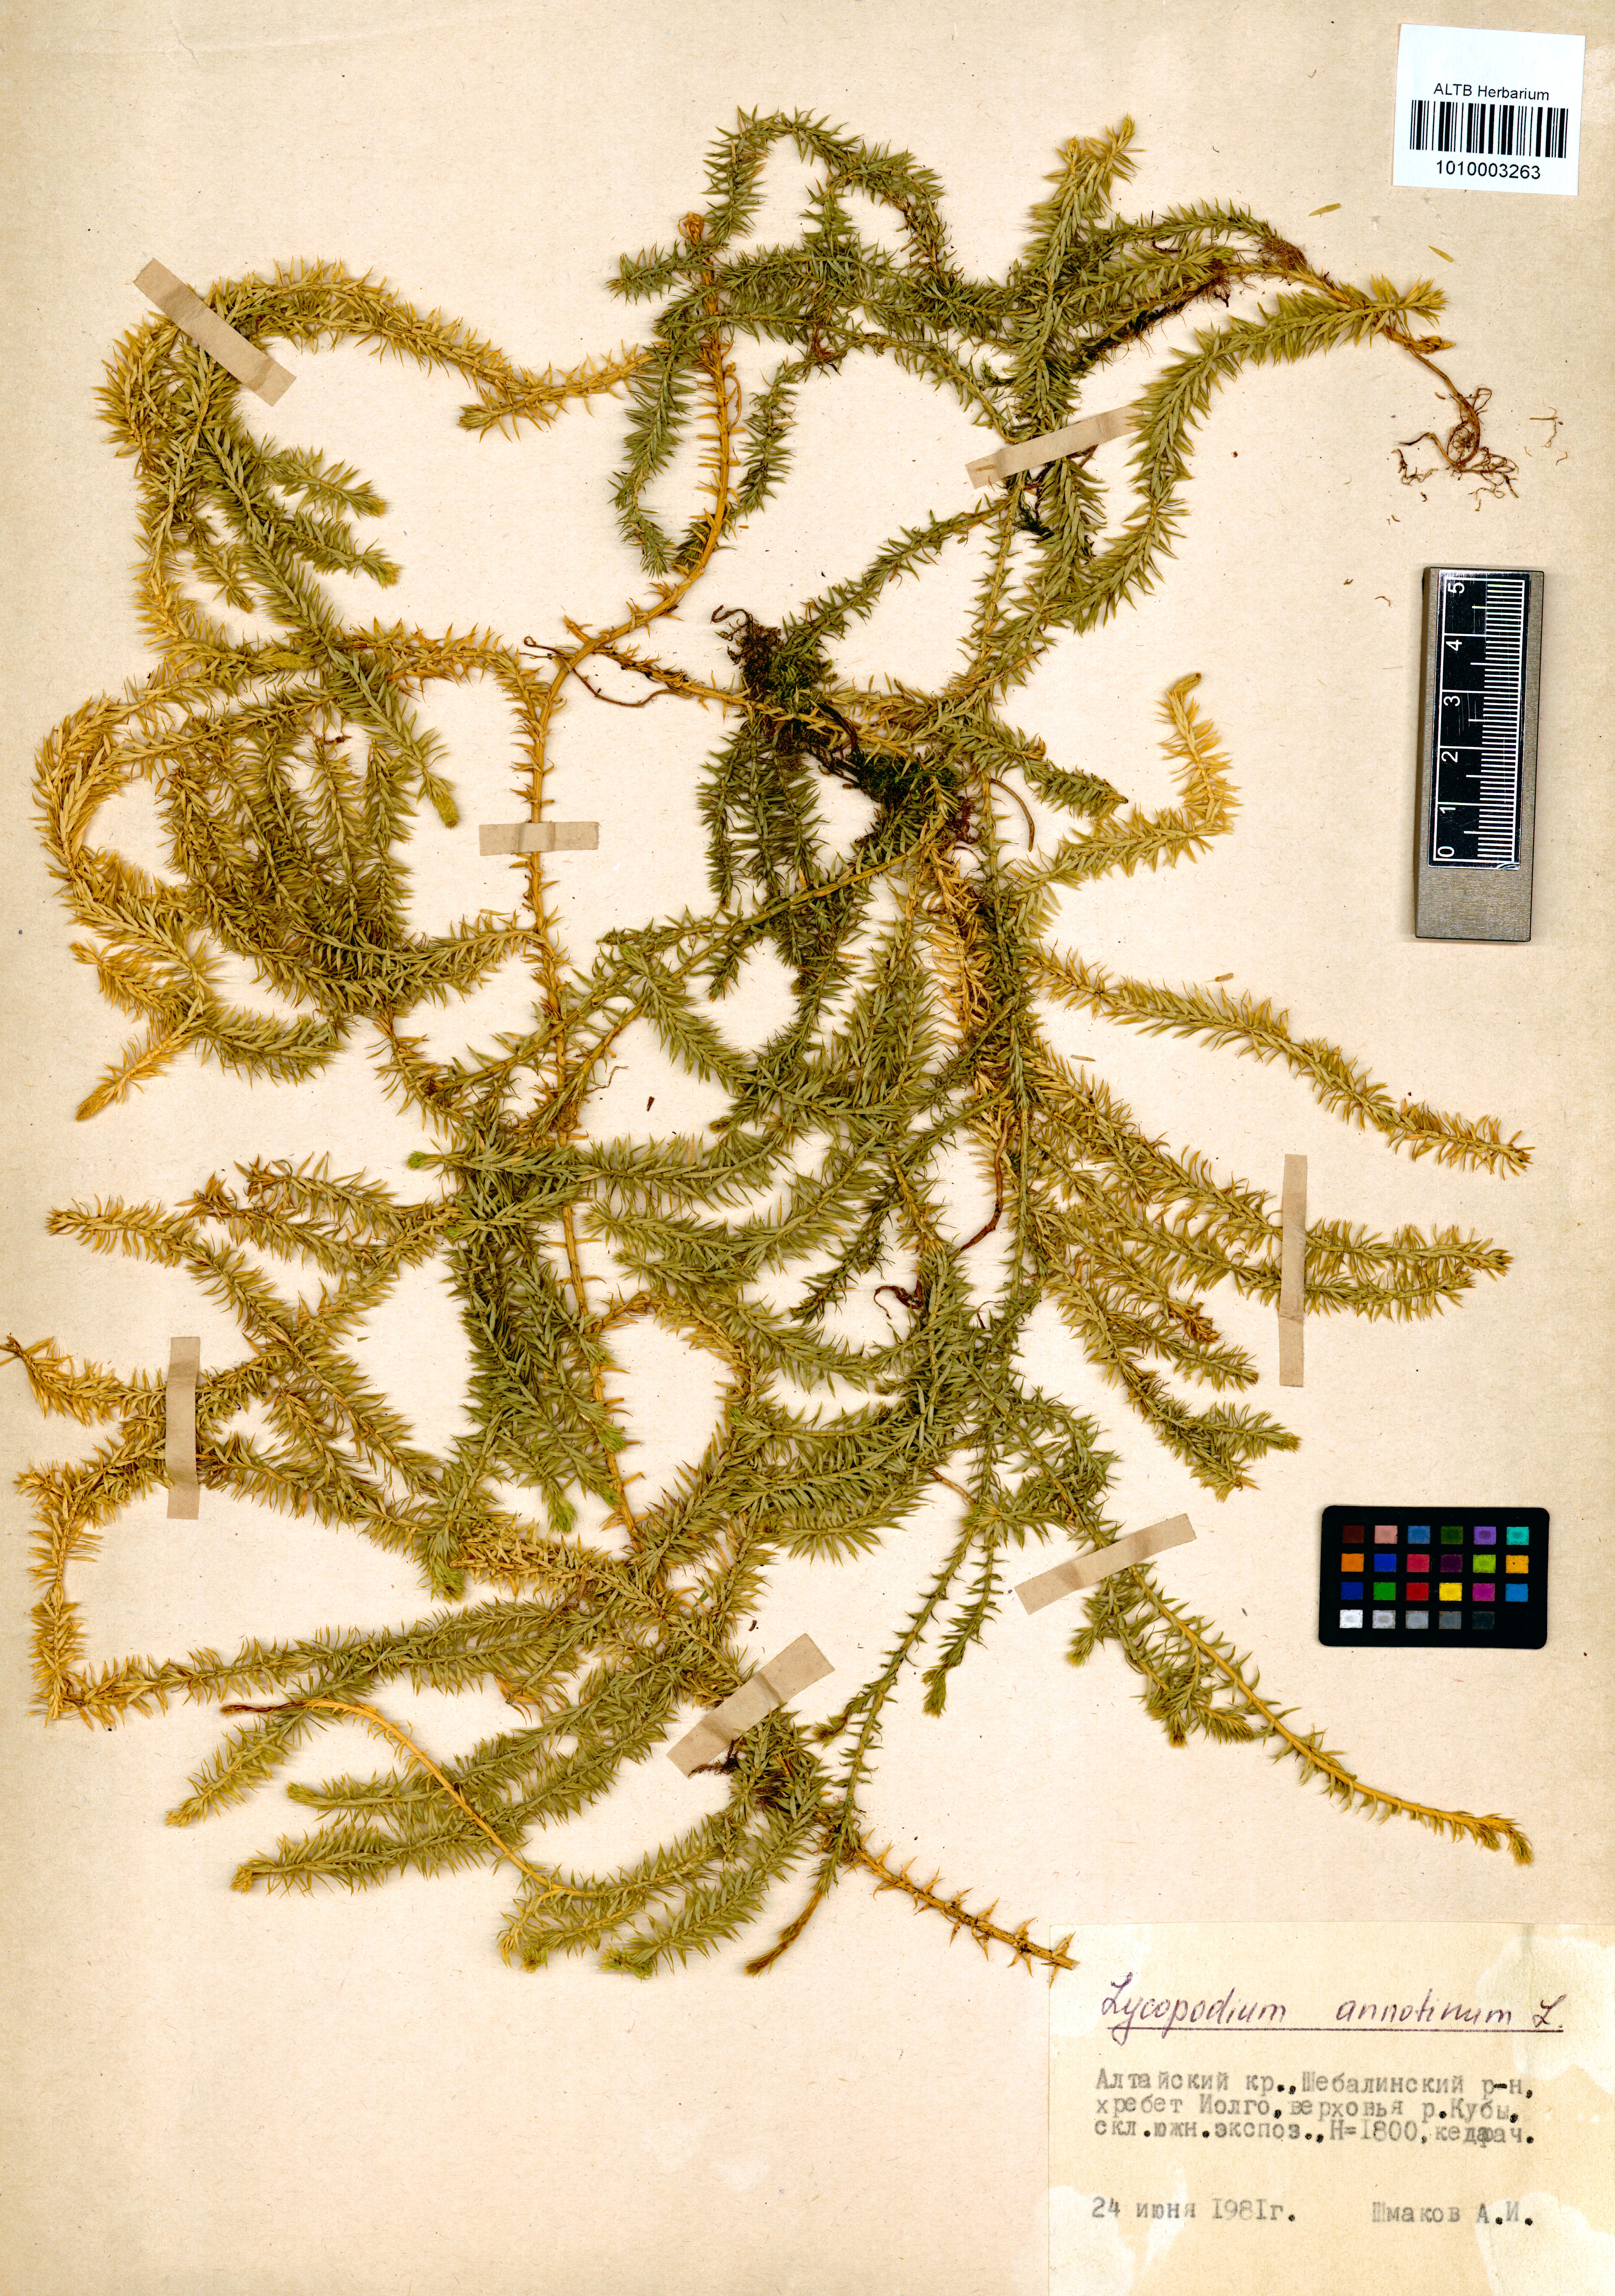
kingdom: Plantae
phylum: Tracheophyta
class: Lycopodiopsida
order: Lycopodiales
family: Lycopodiaceae
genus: Spinulum
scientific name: Spinulum annotinum
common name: Interrupted club-moss
